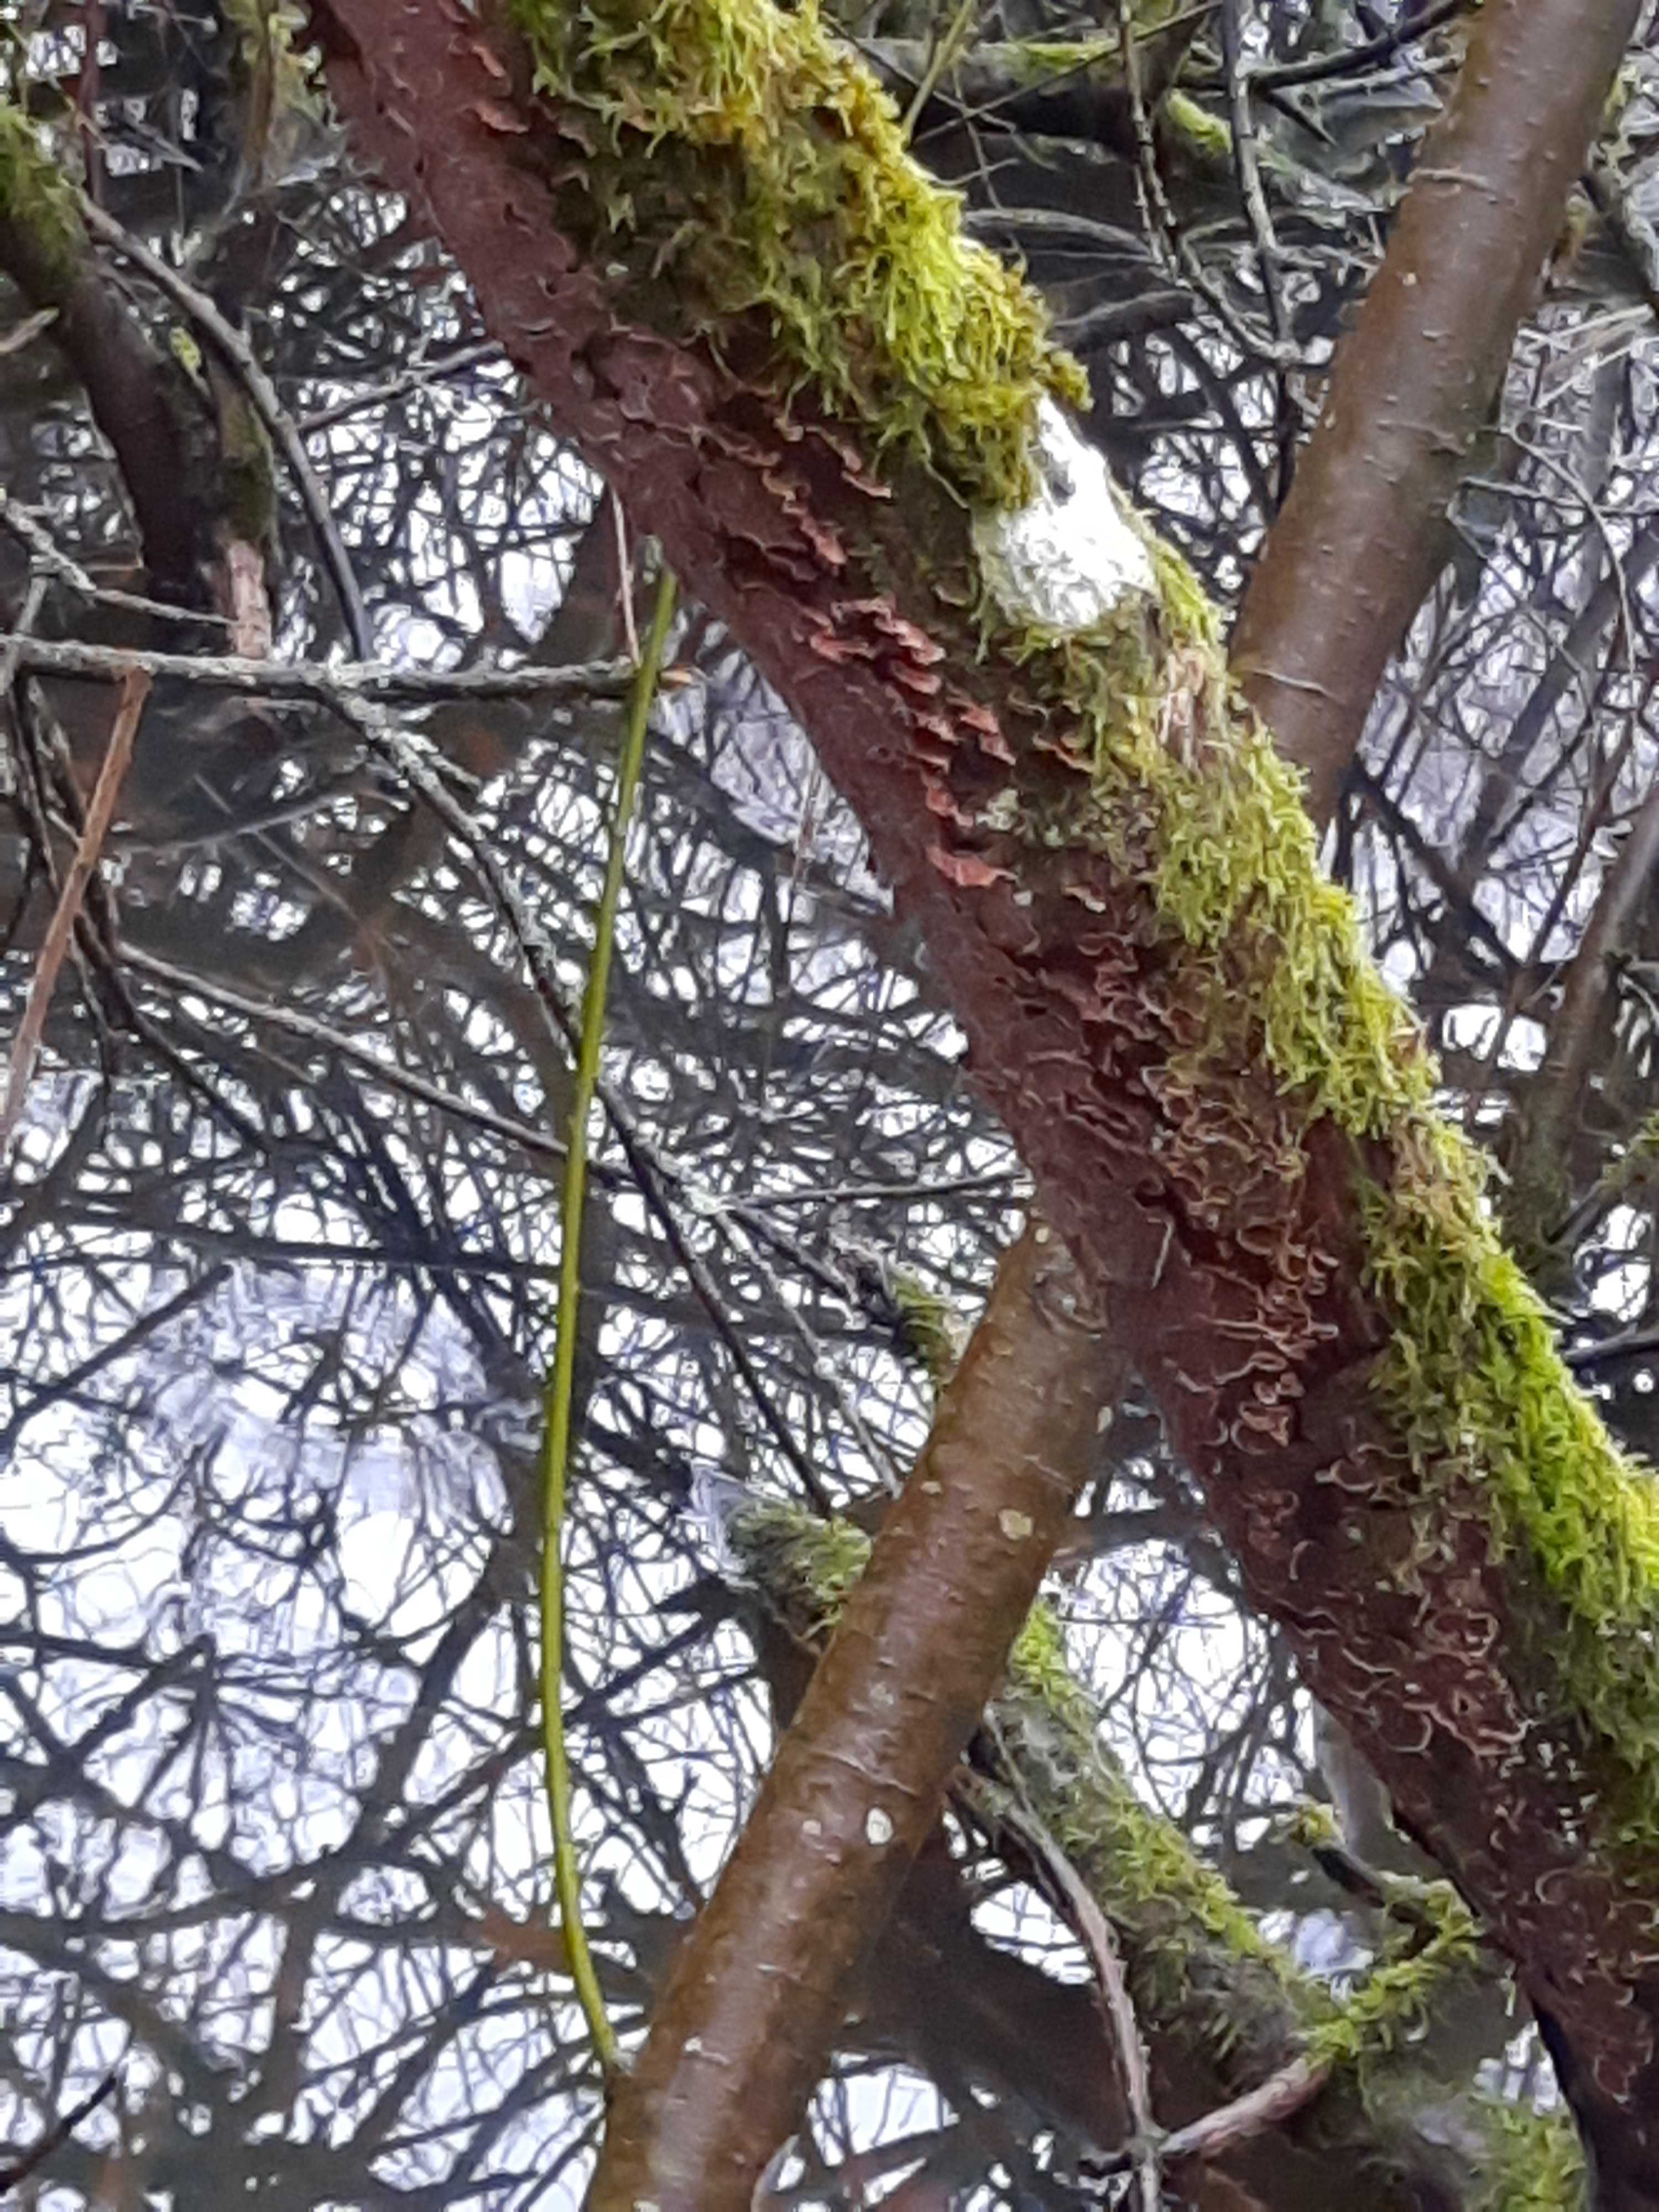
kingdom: Fungi
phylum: Basidiomycota
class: Agaricomycetes
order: Hymenochaetales
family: Hymenochaetaceae
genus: Hydnoporia
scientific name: Hydnoporia tabacina
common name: tobaksbrun ruslædersvamp
